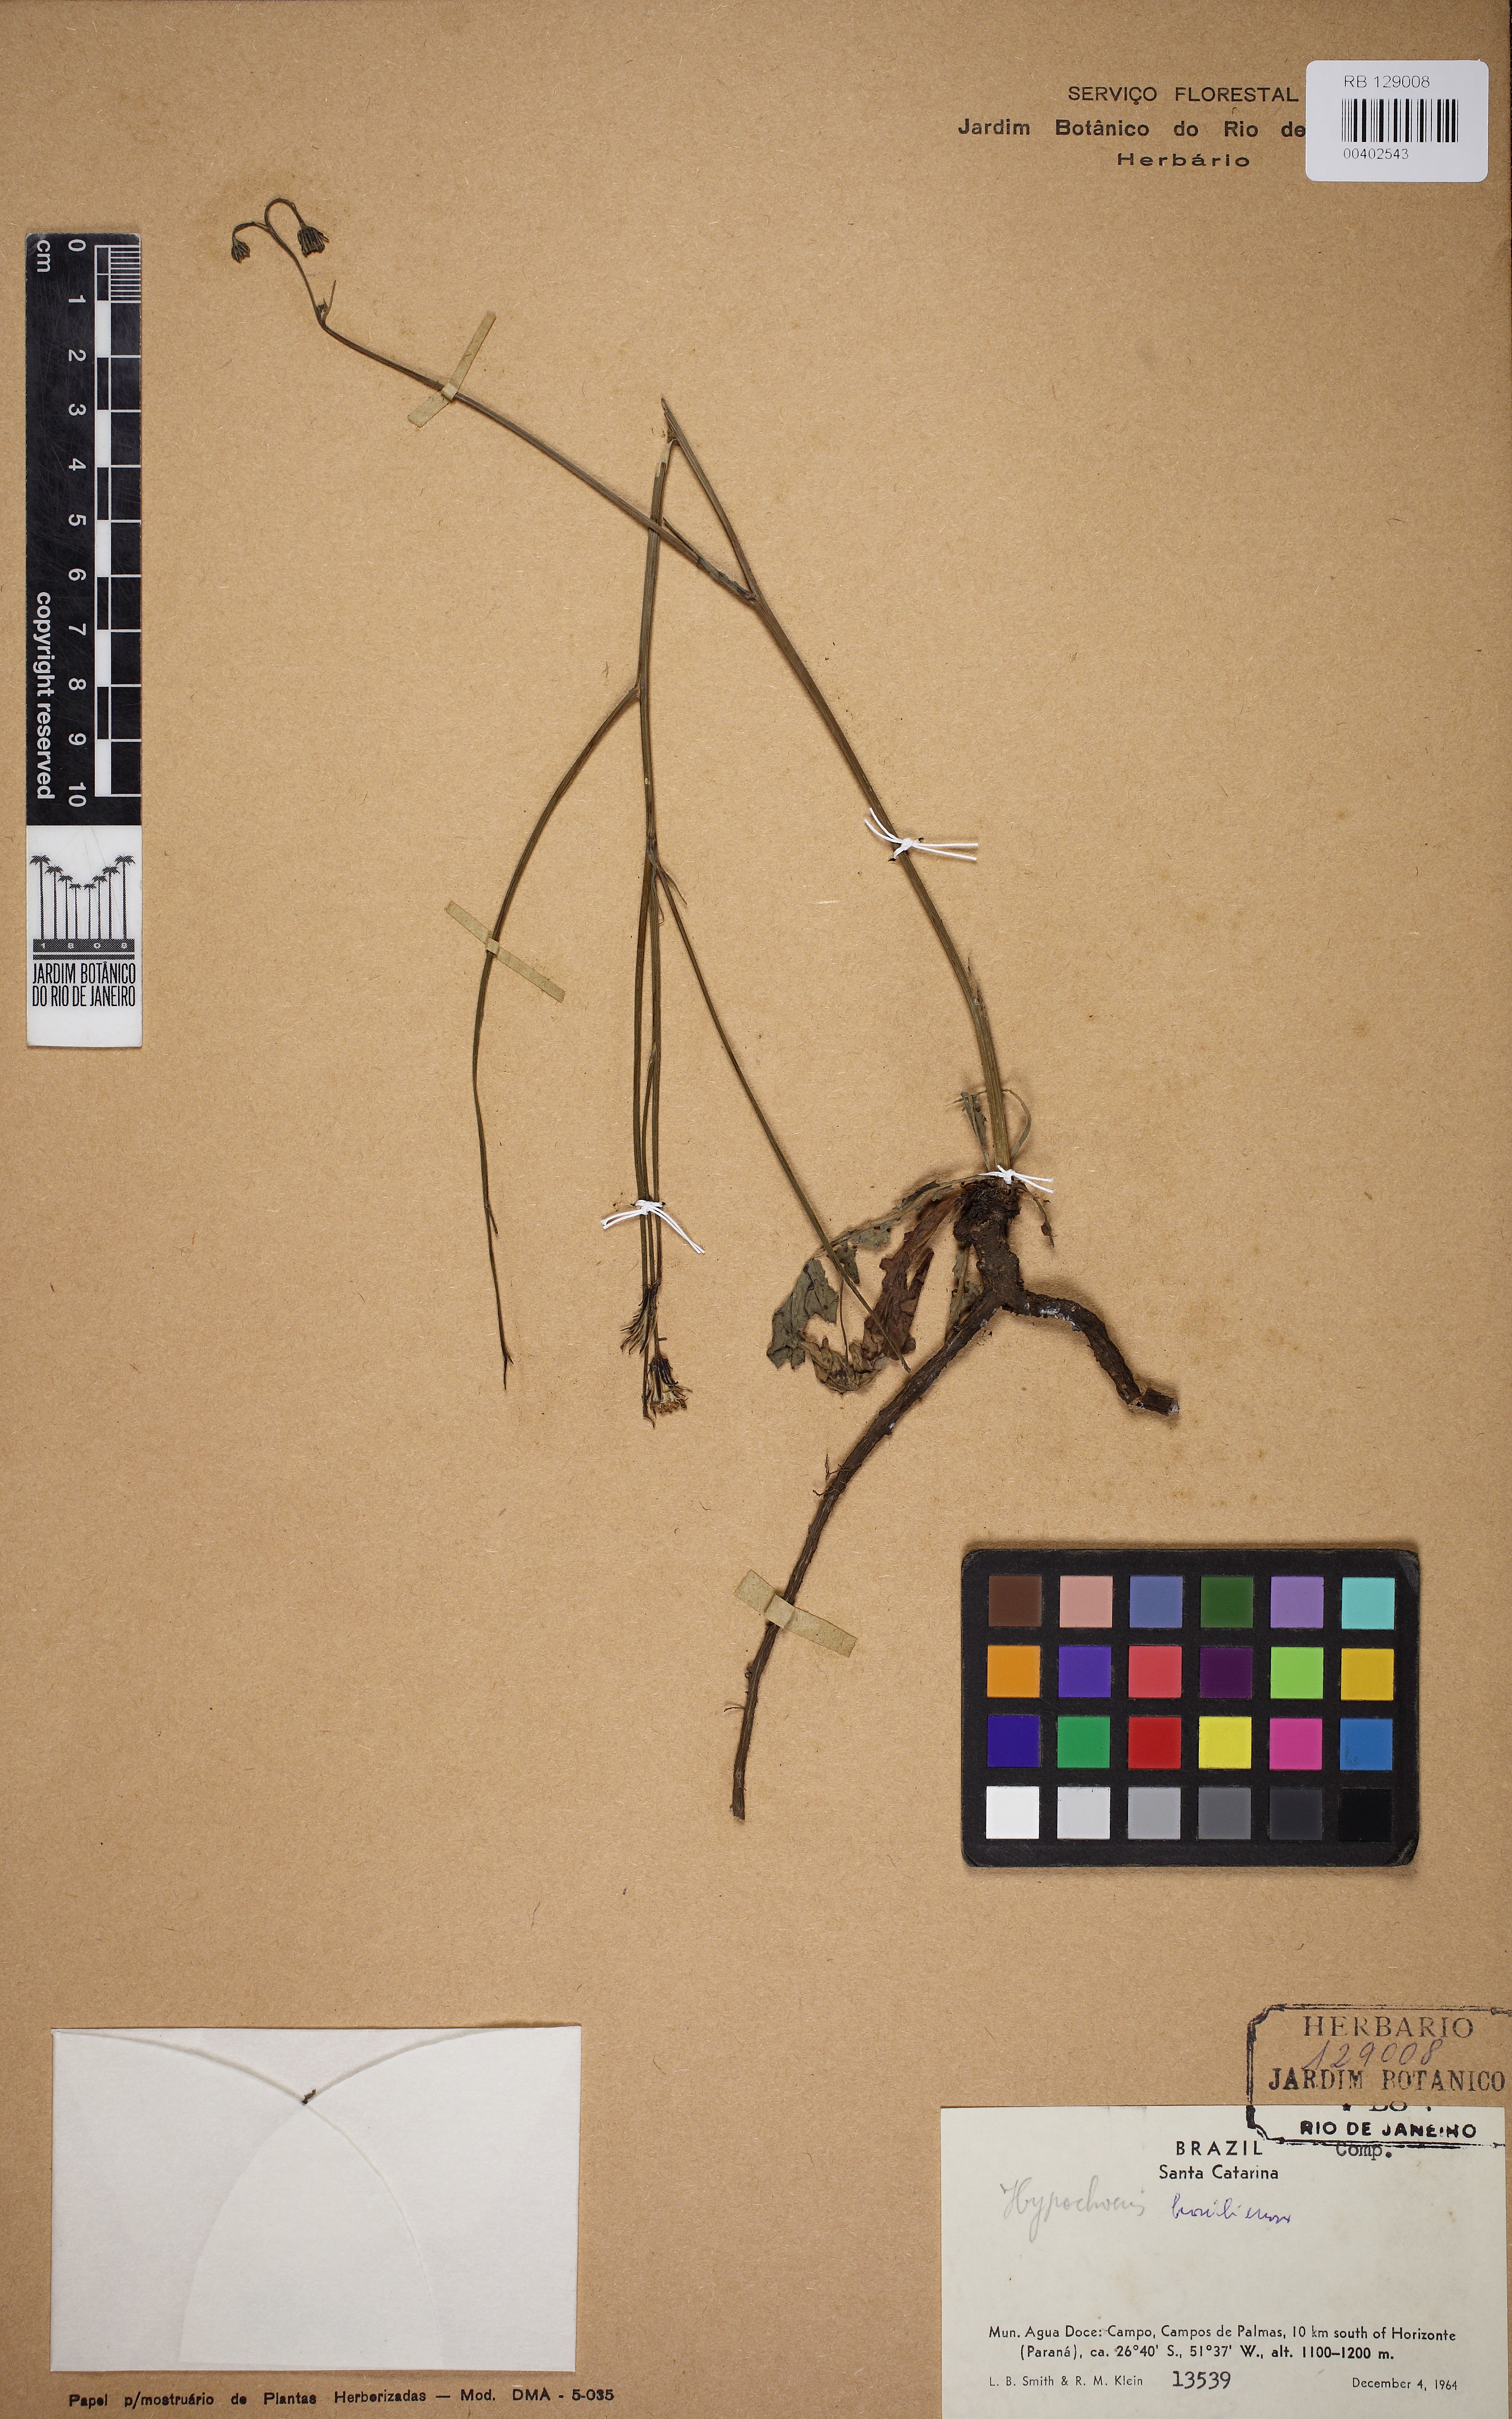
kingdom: Plantae
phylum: Tracheophyta
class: Magnoliopsida
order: Asterales
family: Asteraceae
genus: Hypochaeris
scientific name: Hypochaeris chillensis
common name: Brazilian cat's ear
